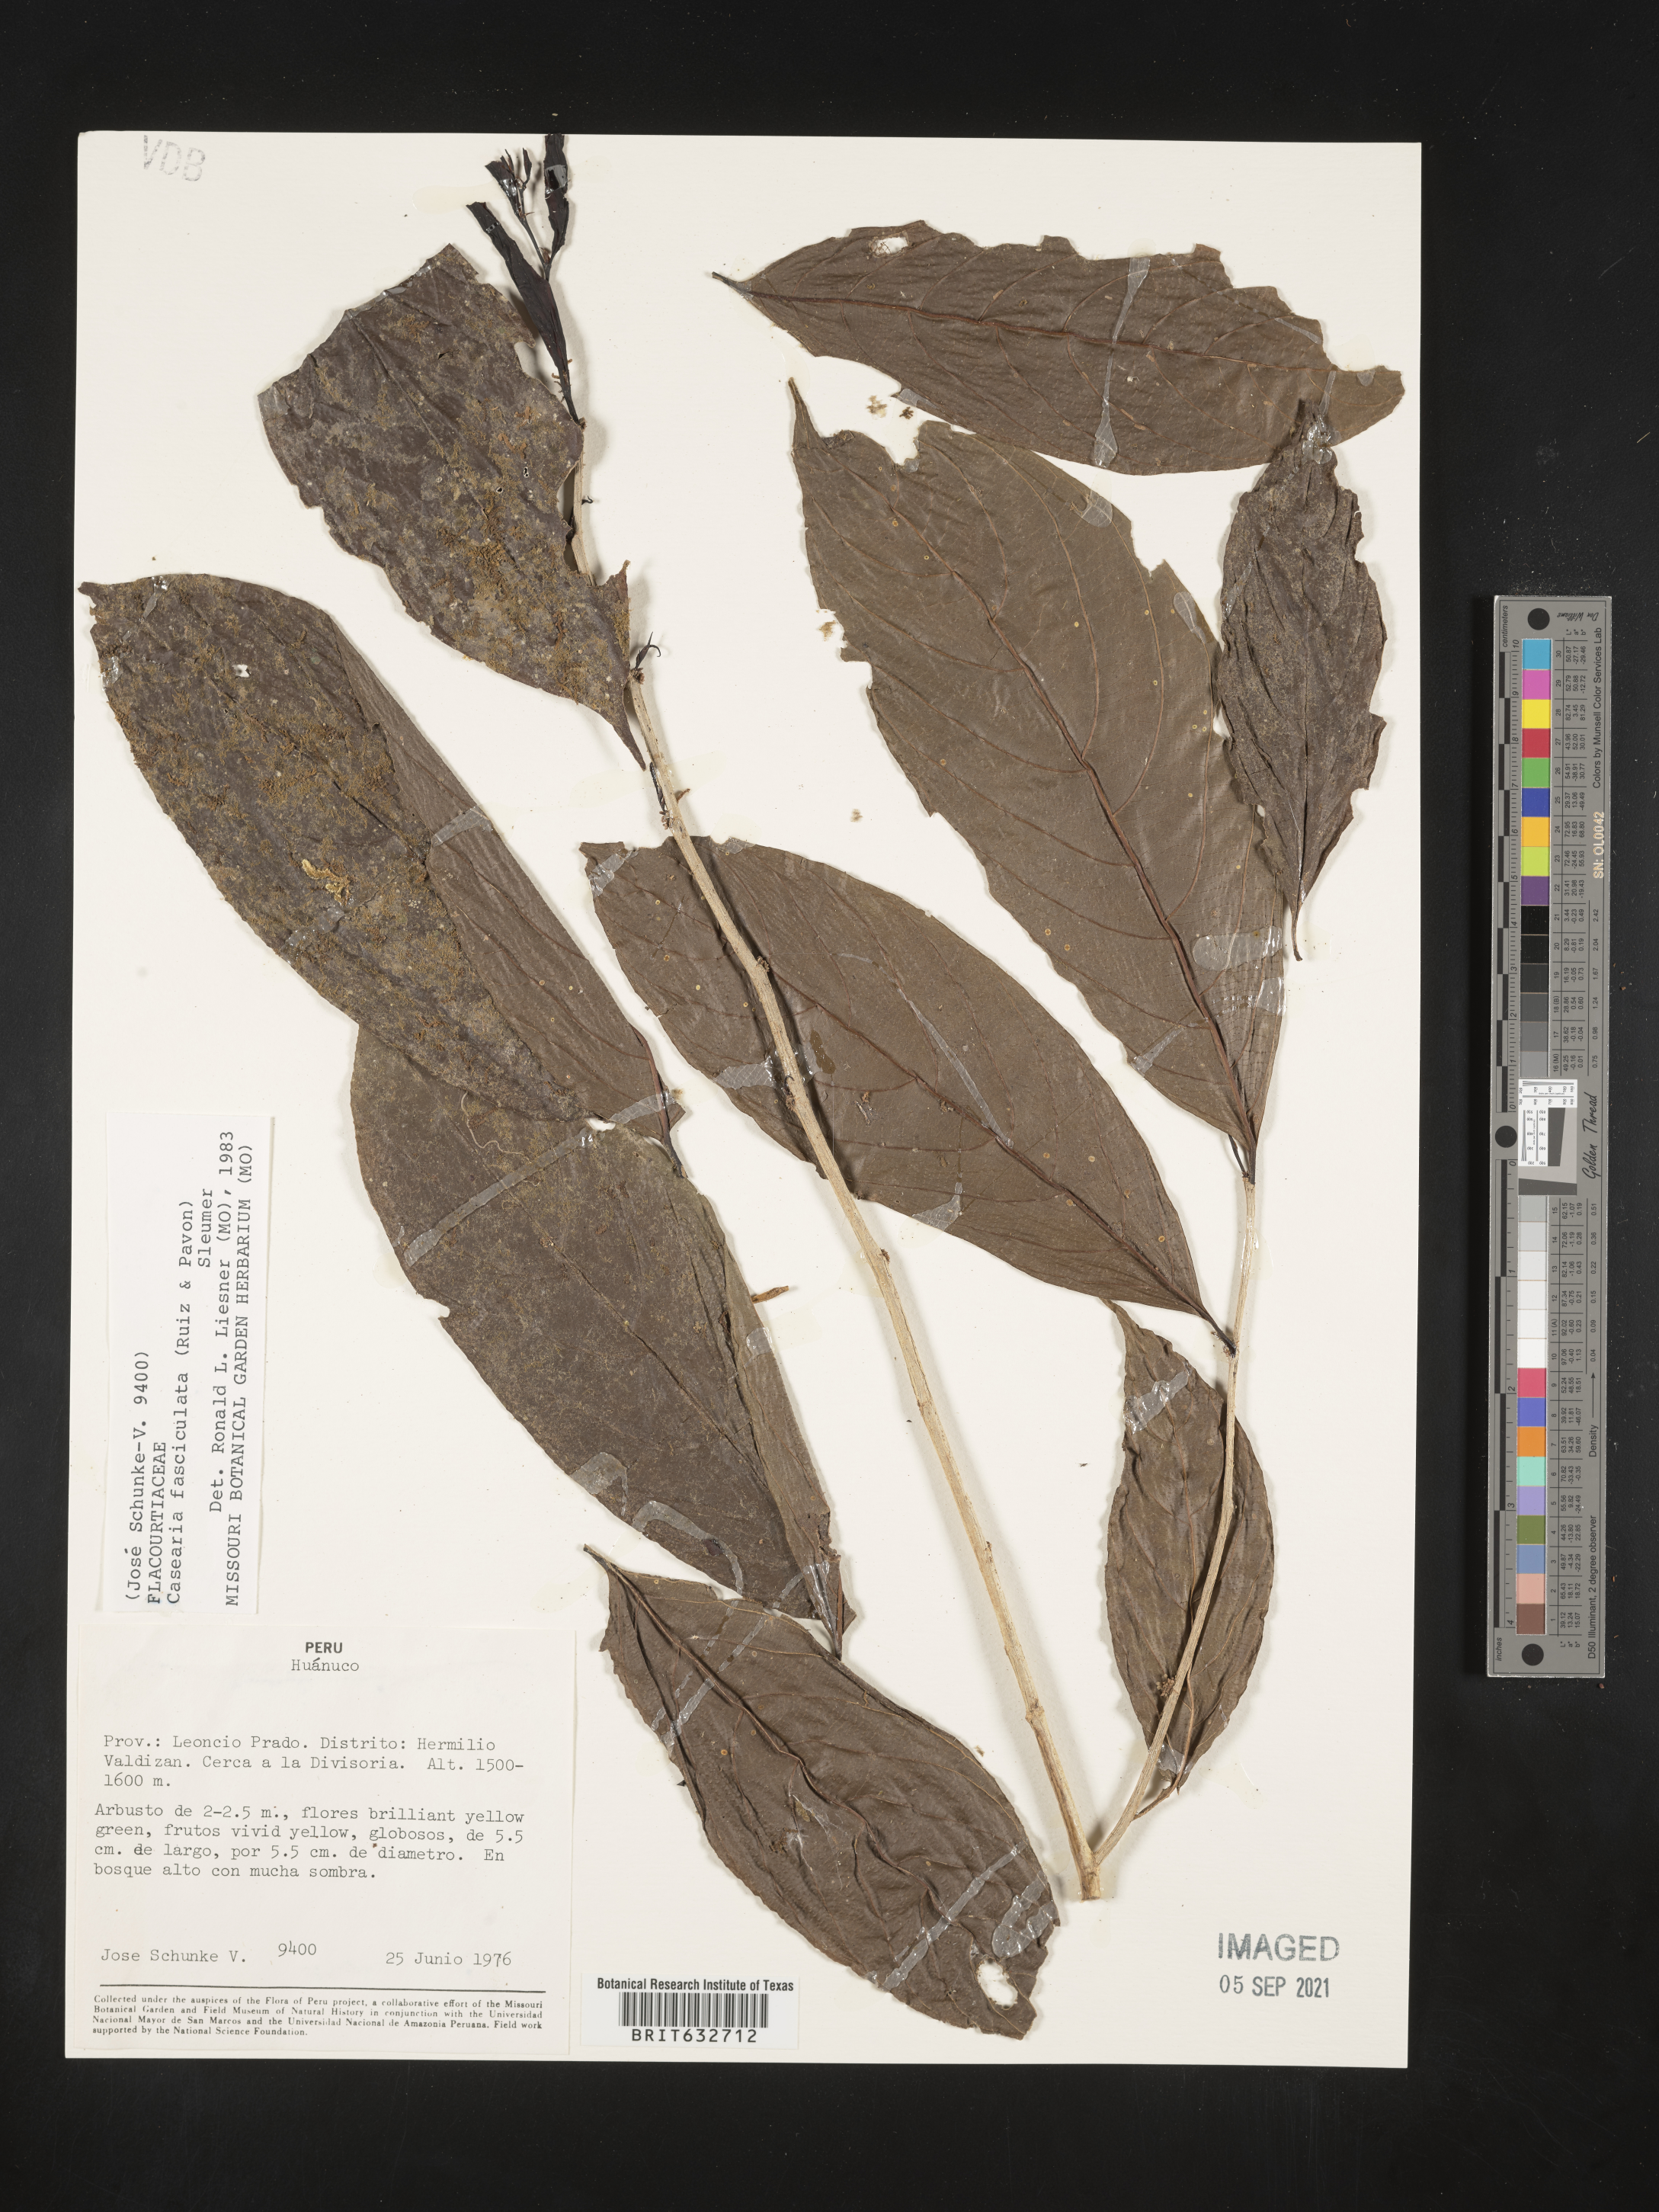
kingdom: Plantae
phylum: Tracheophyta
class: Magnoliopsida
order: Malpighiales
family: Salicaceae
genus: Casearia
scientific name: Casearia
